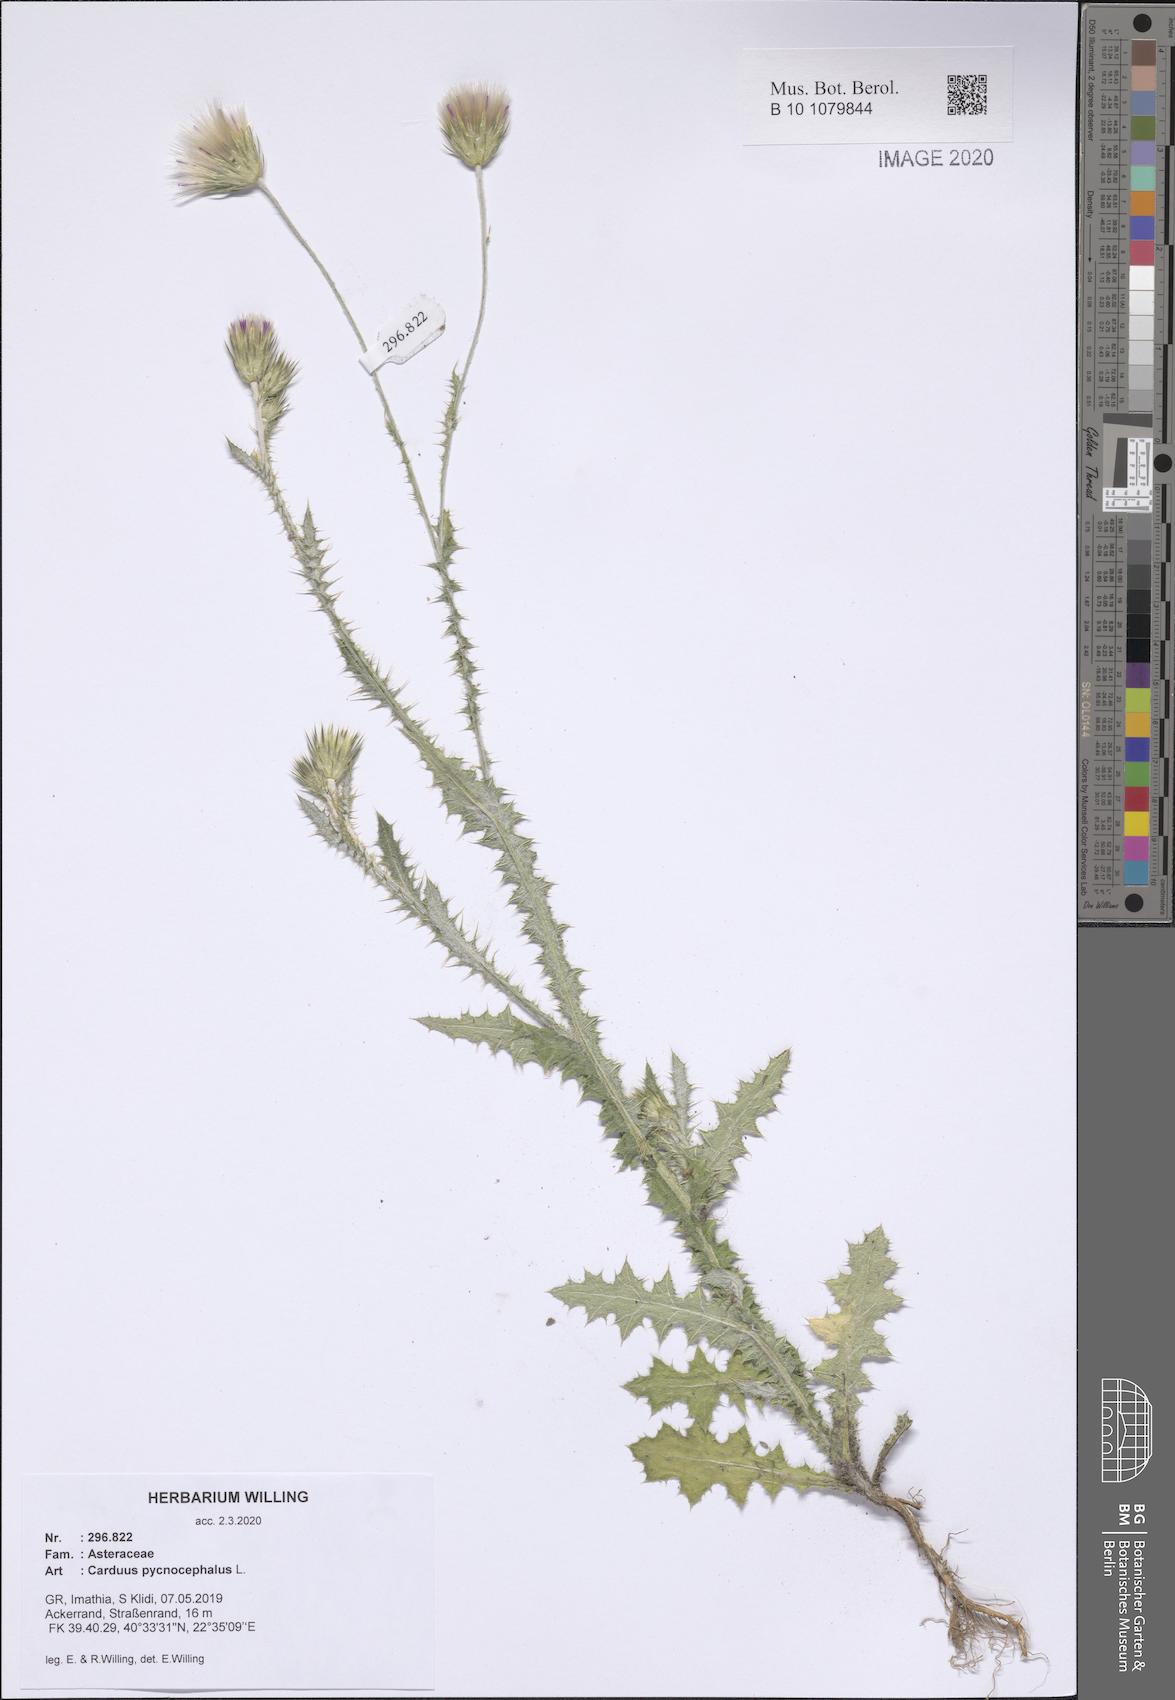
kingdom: Plantae
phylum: Tracheophyta
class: Magnoliopsida
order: Asterales
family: Asteraceae
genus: Carduus
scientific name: Carduus pycnocephalus
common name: Plymouth thistle
